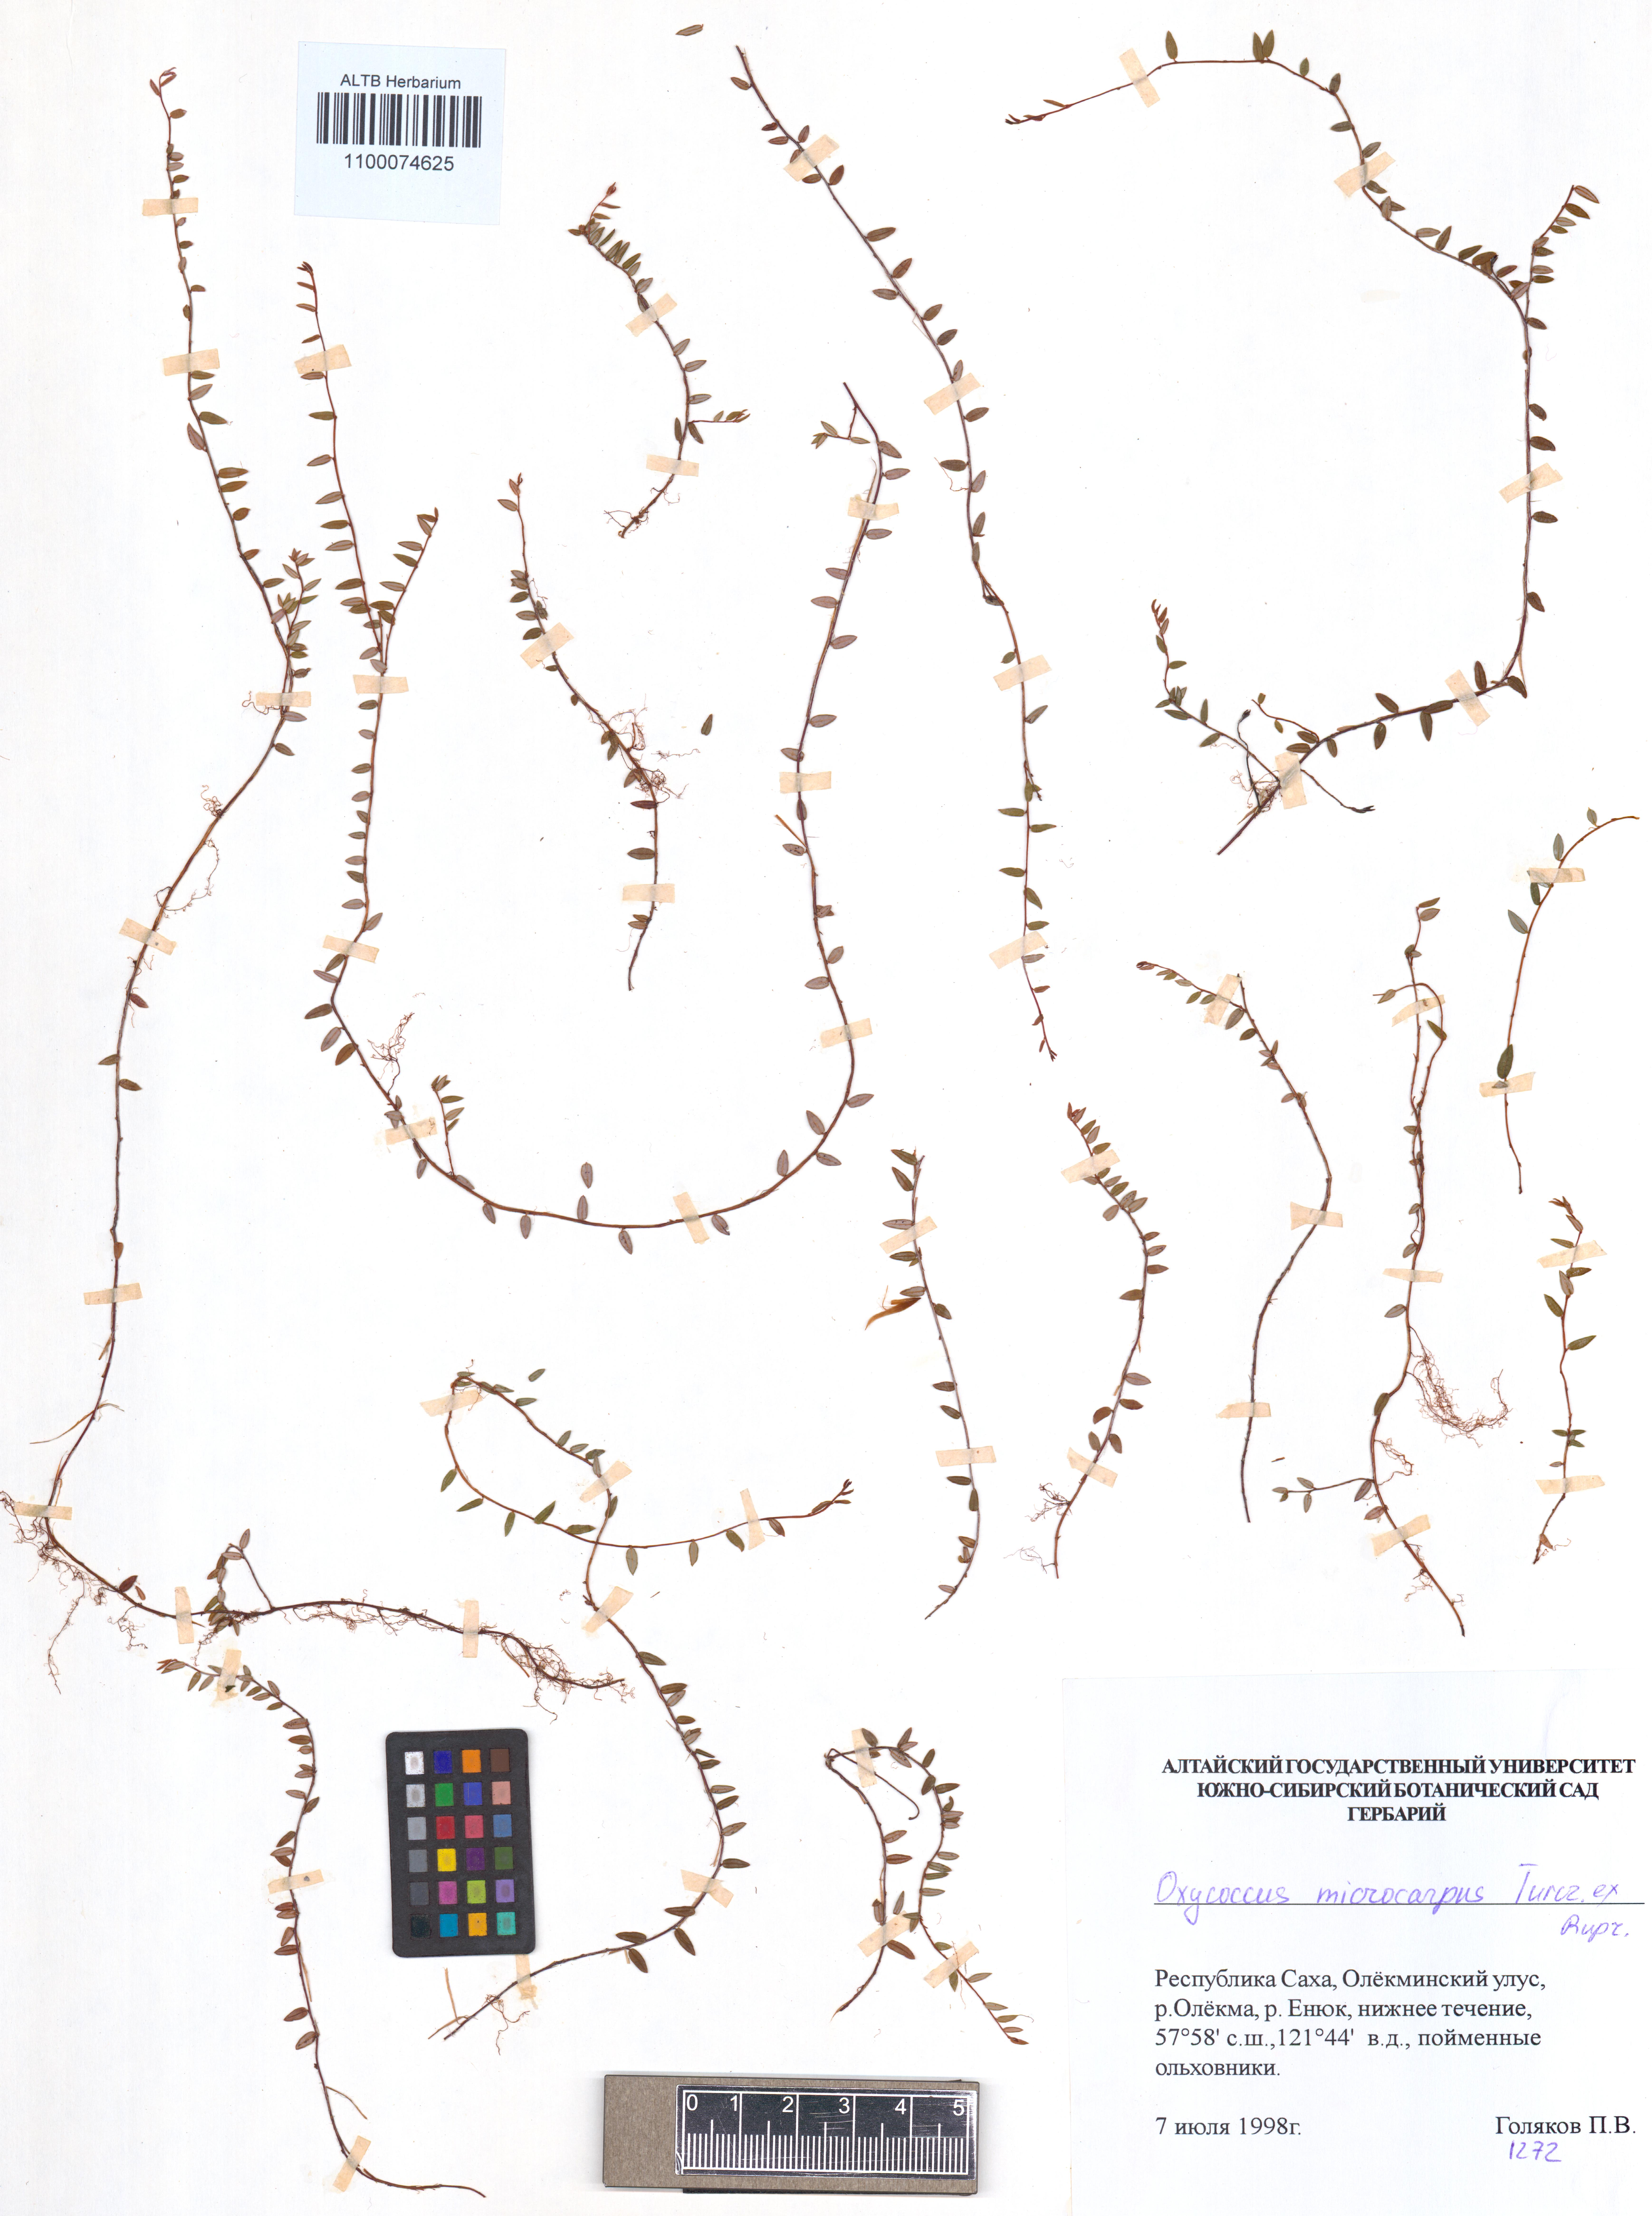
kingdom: Plantae
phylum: Tracheophyta
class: Magnoliopsida
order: Ericales
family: Ericaceae
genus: Vaccinium
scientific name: Vaccinium microcarpum
